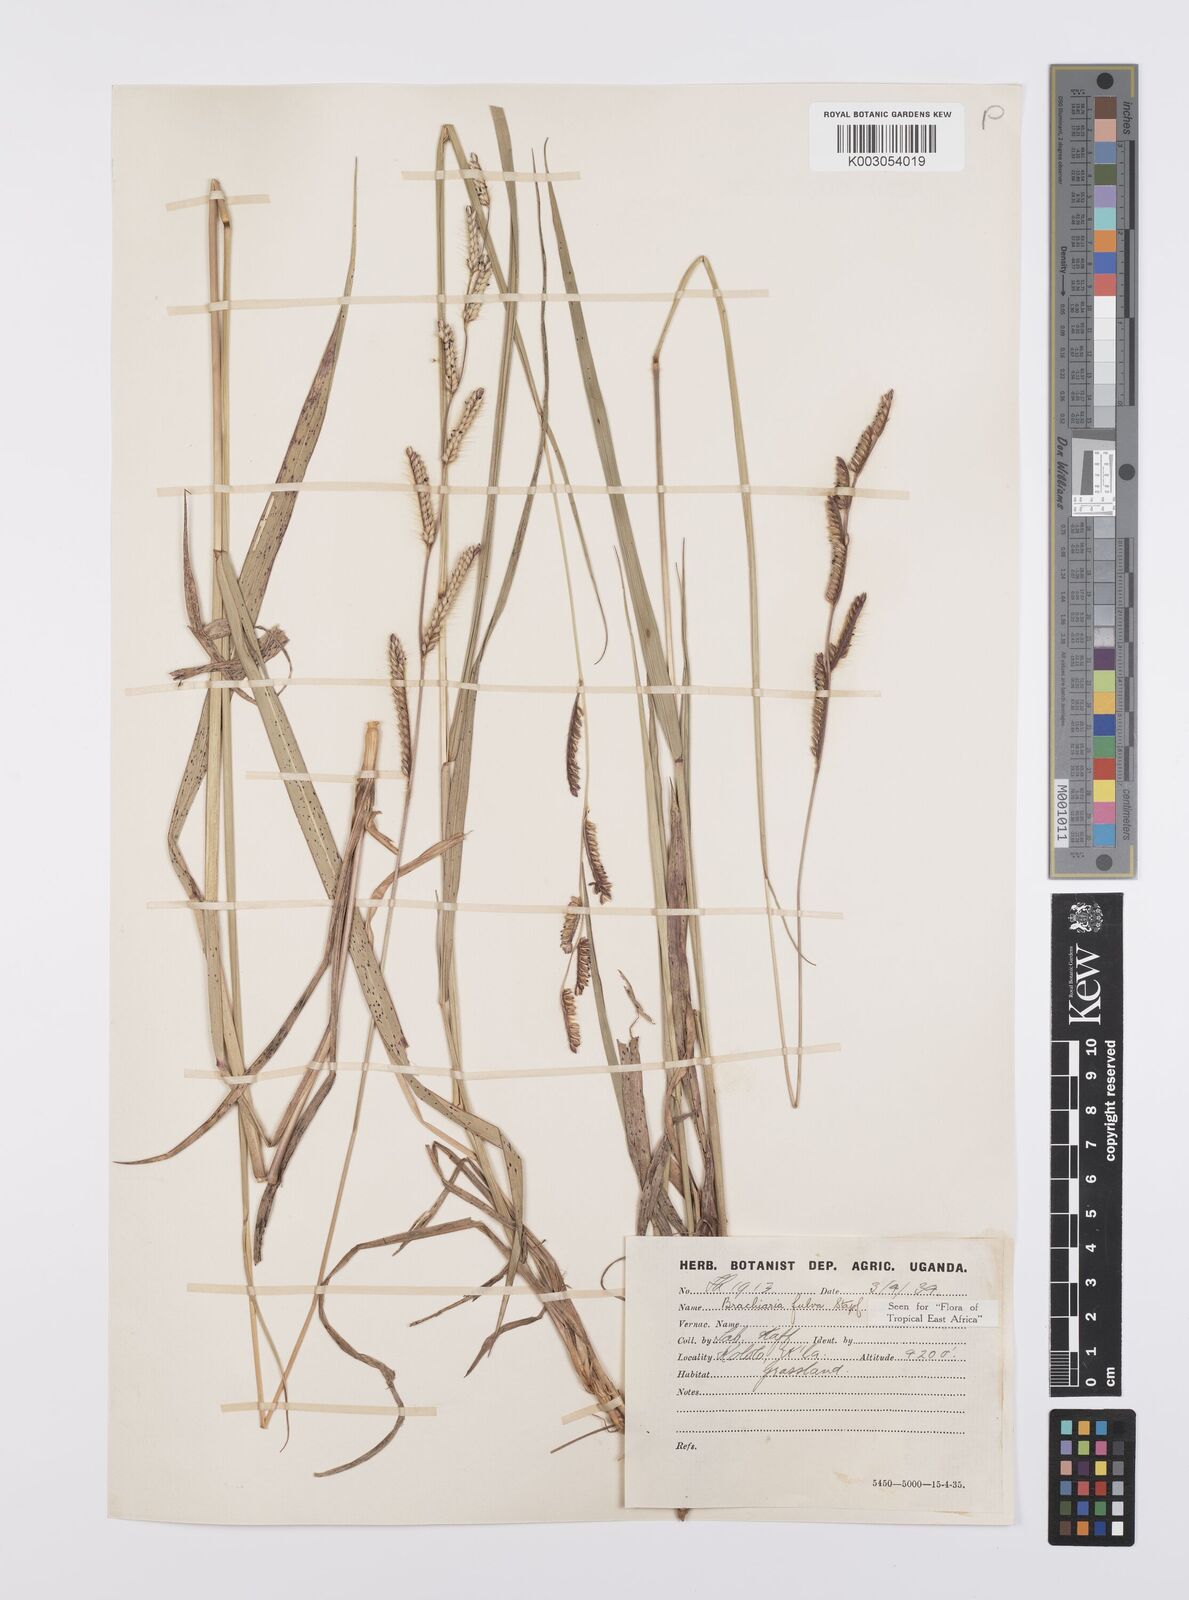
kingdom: Plantae
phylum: Tracheophyta
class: Liliopsida
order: Poales
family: Poaceae
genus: Urochloa
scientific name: Urochloa jubata
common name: Buffalograss
